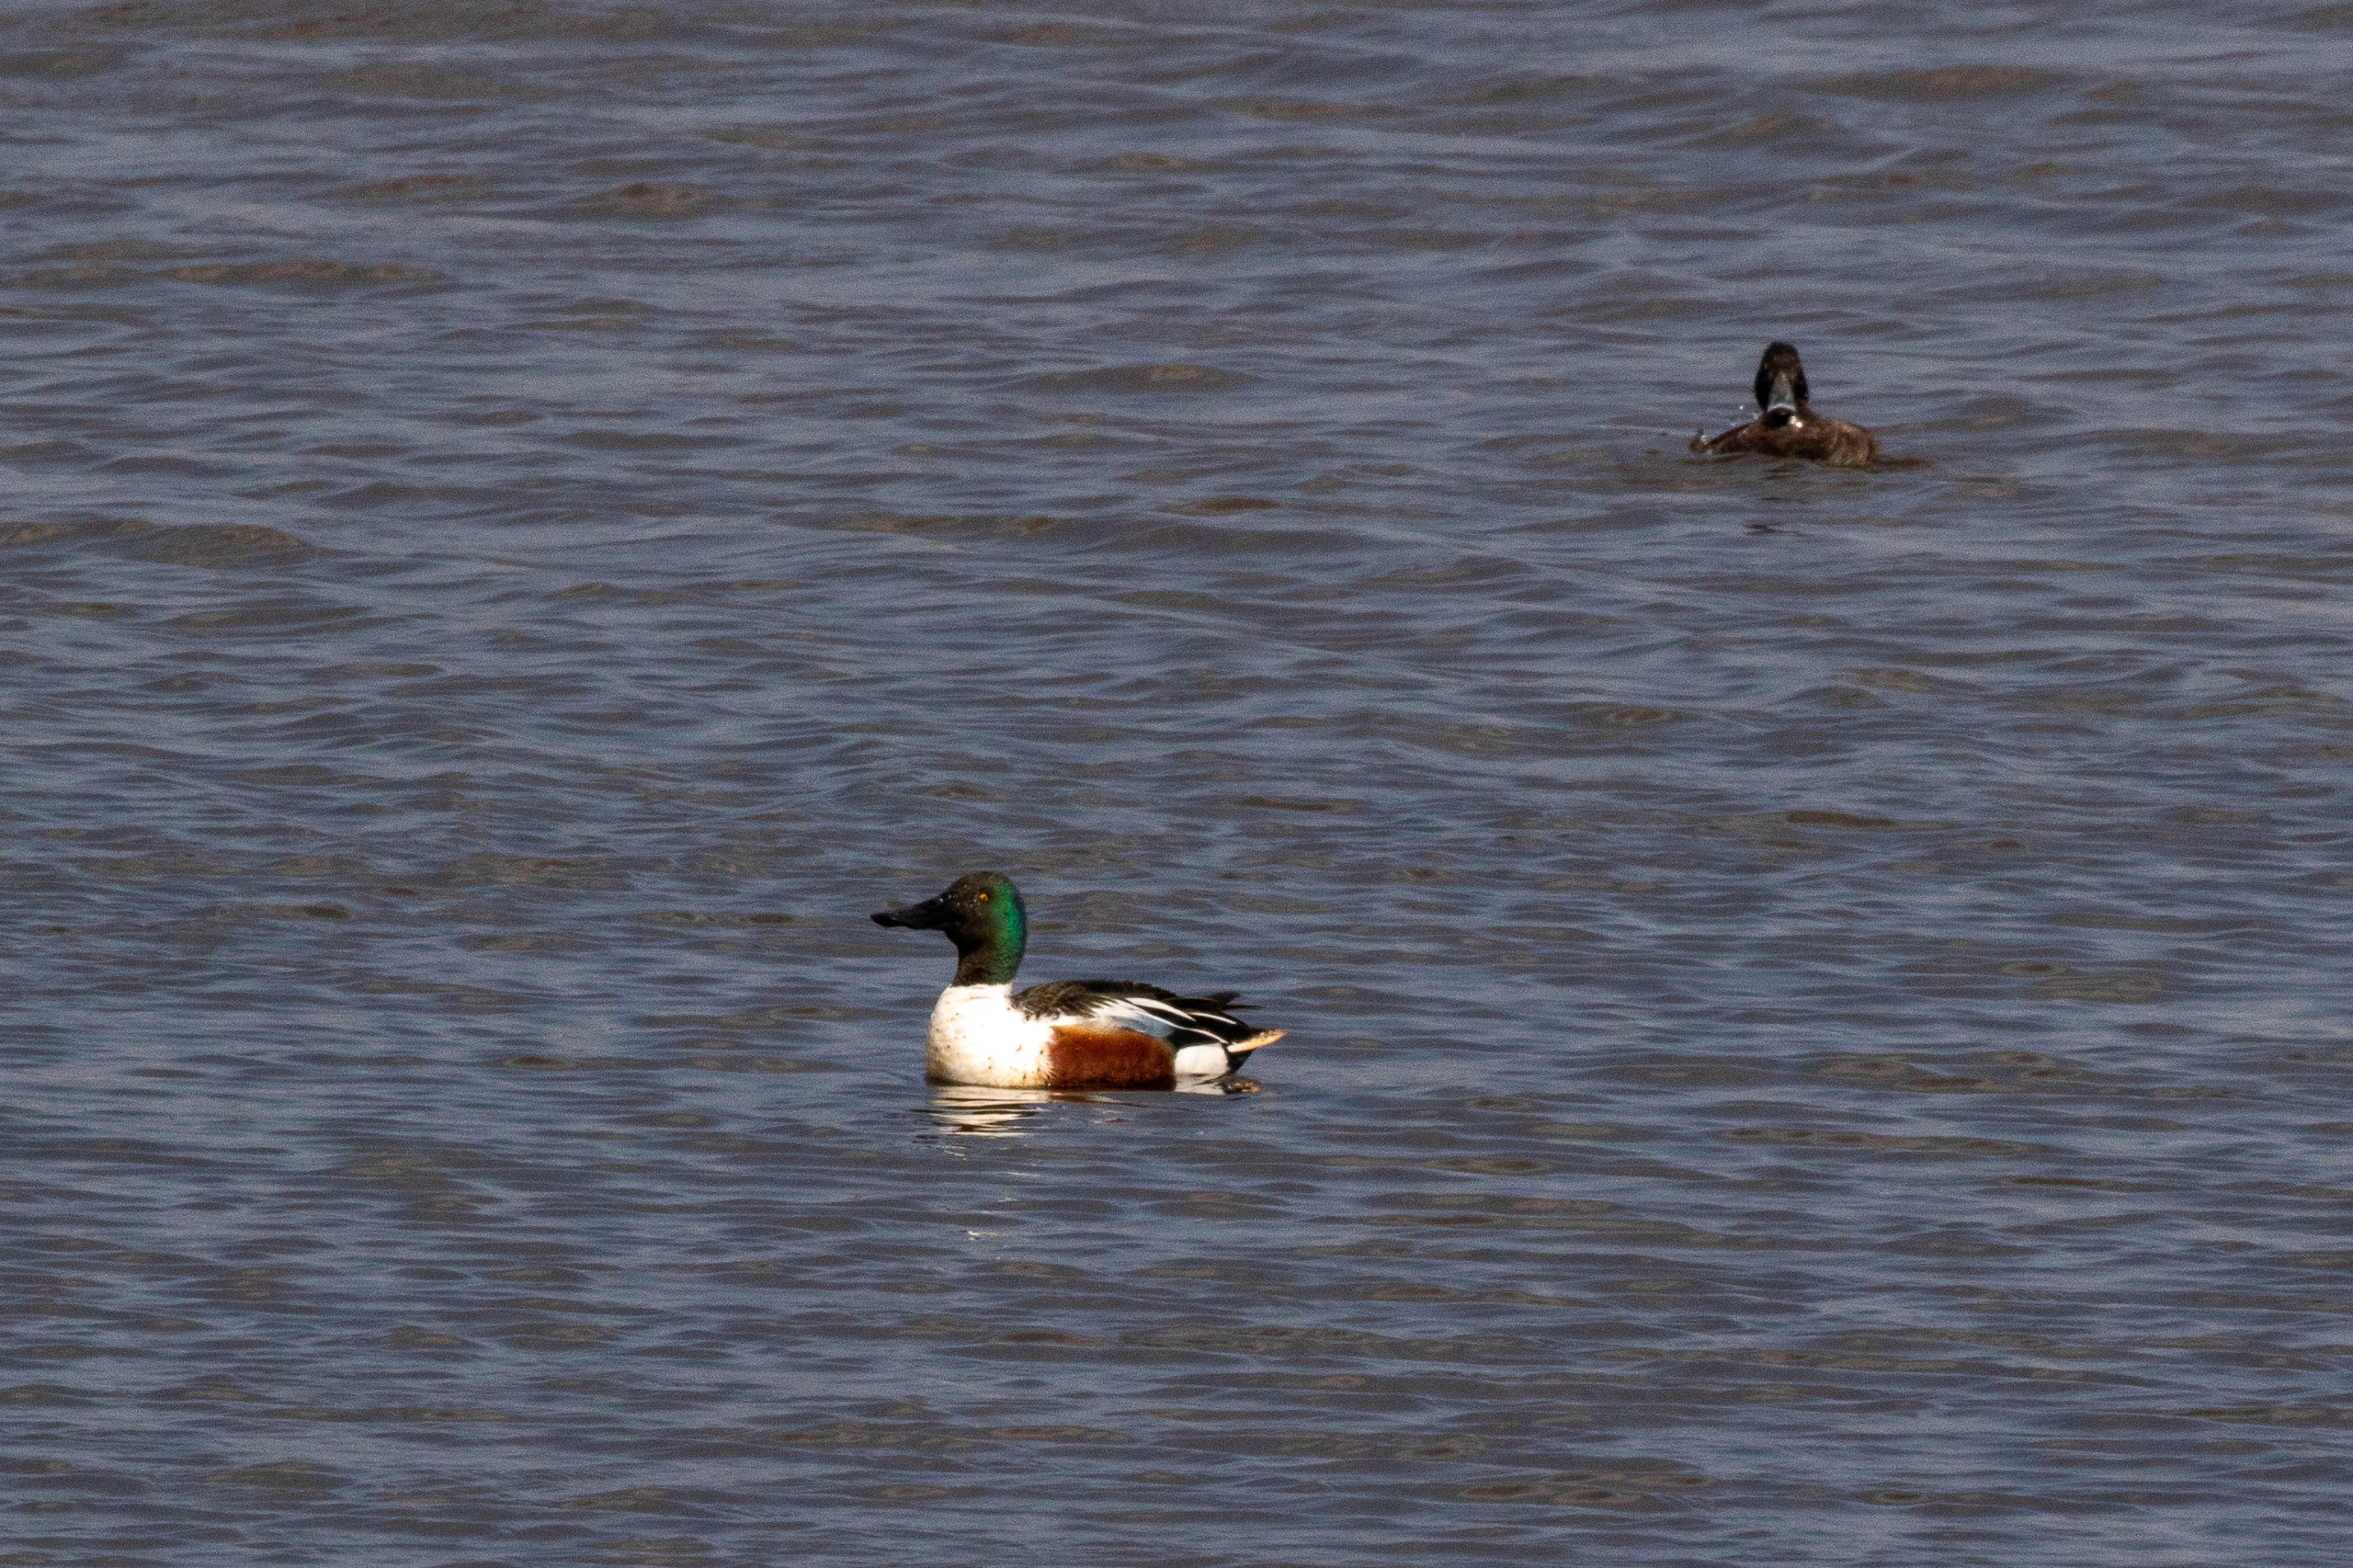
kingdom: Animalia
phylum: Chordata
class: Aves
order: Anseriformes
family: Anatidae
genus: Spatula
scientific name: Spatula clypeata
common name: Skeand
